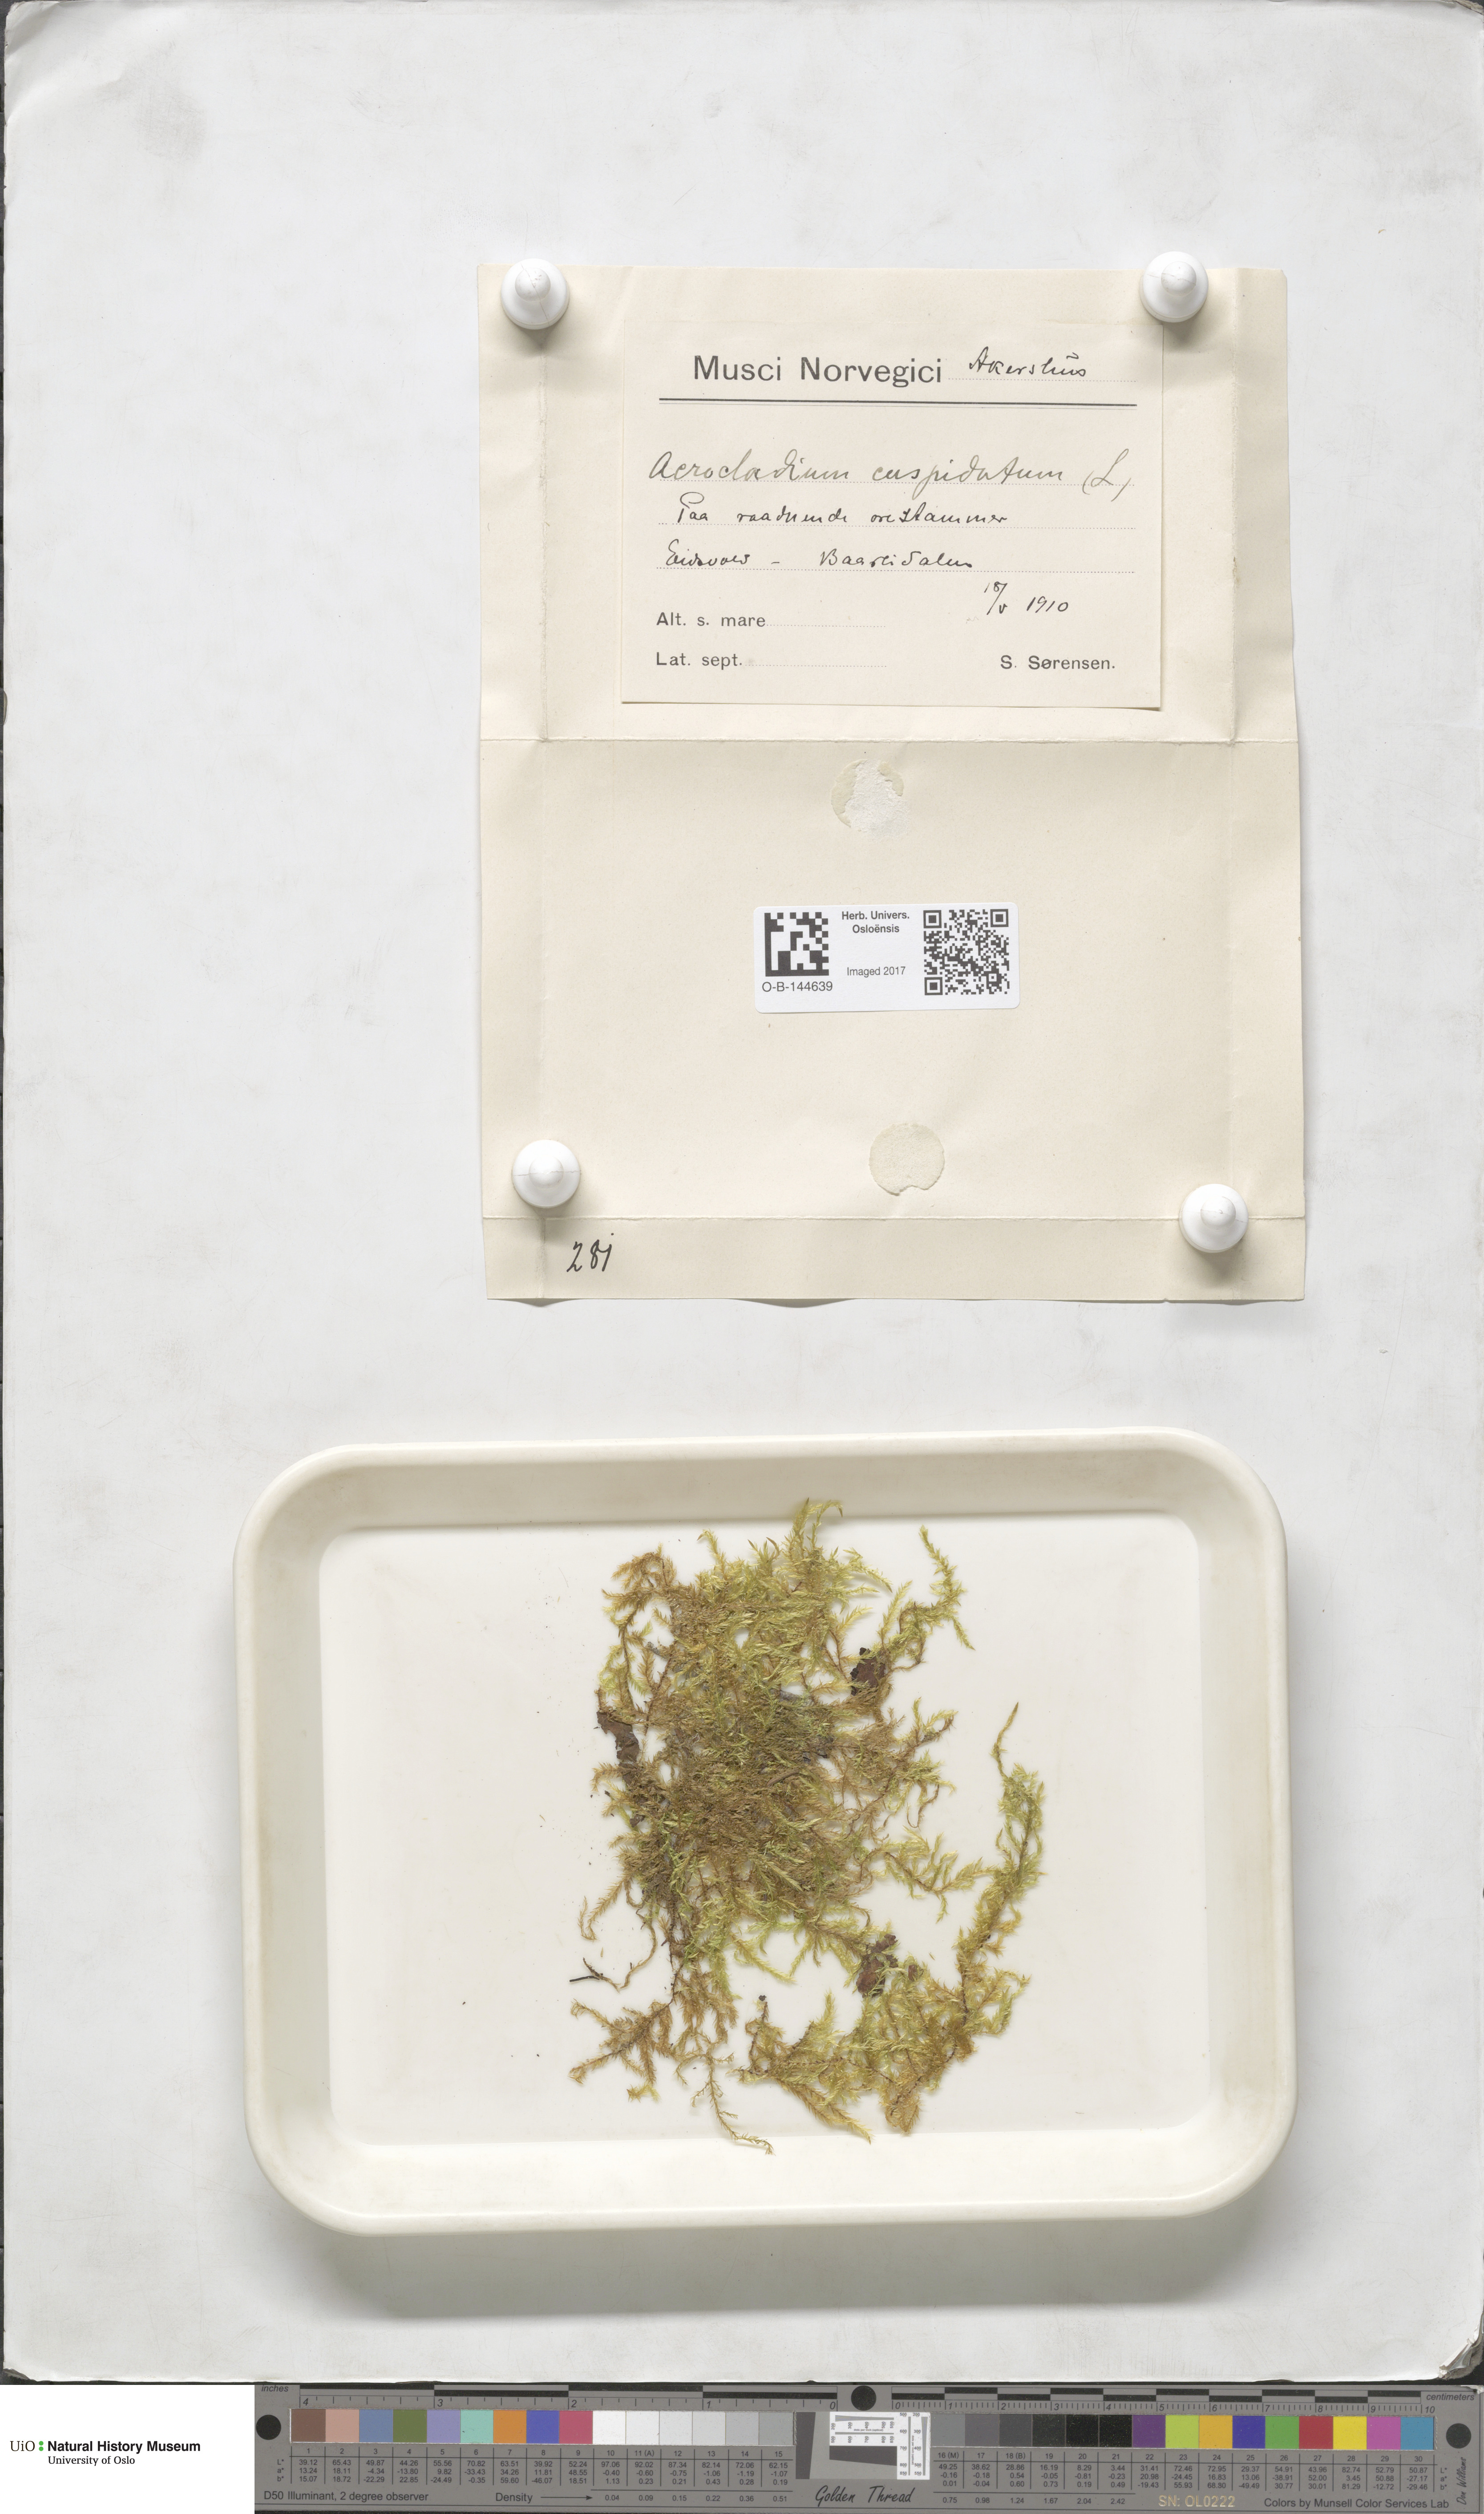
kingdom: Plantae
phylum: Bryophyta
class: Bryopsida
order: Hypnales
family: Pylaisiaceae
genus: Calliergonella
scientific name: Calliergonella cuspidata
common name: Common large wetland moss
